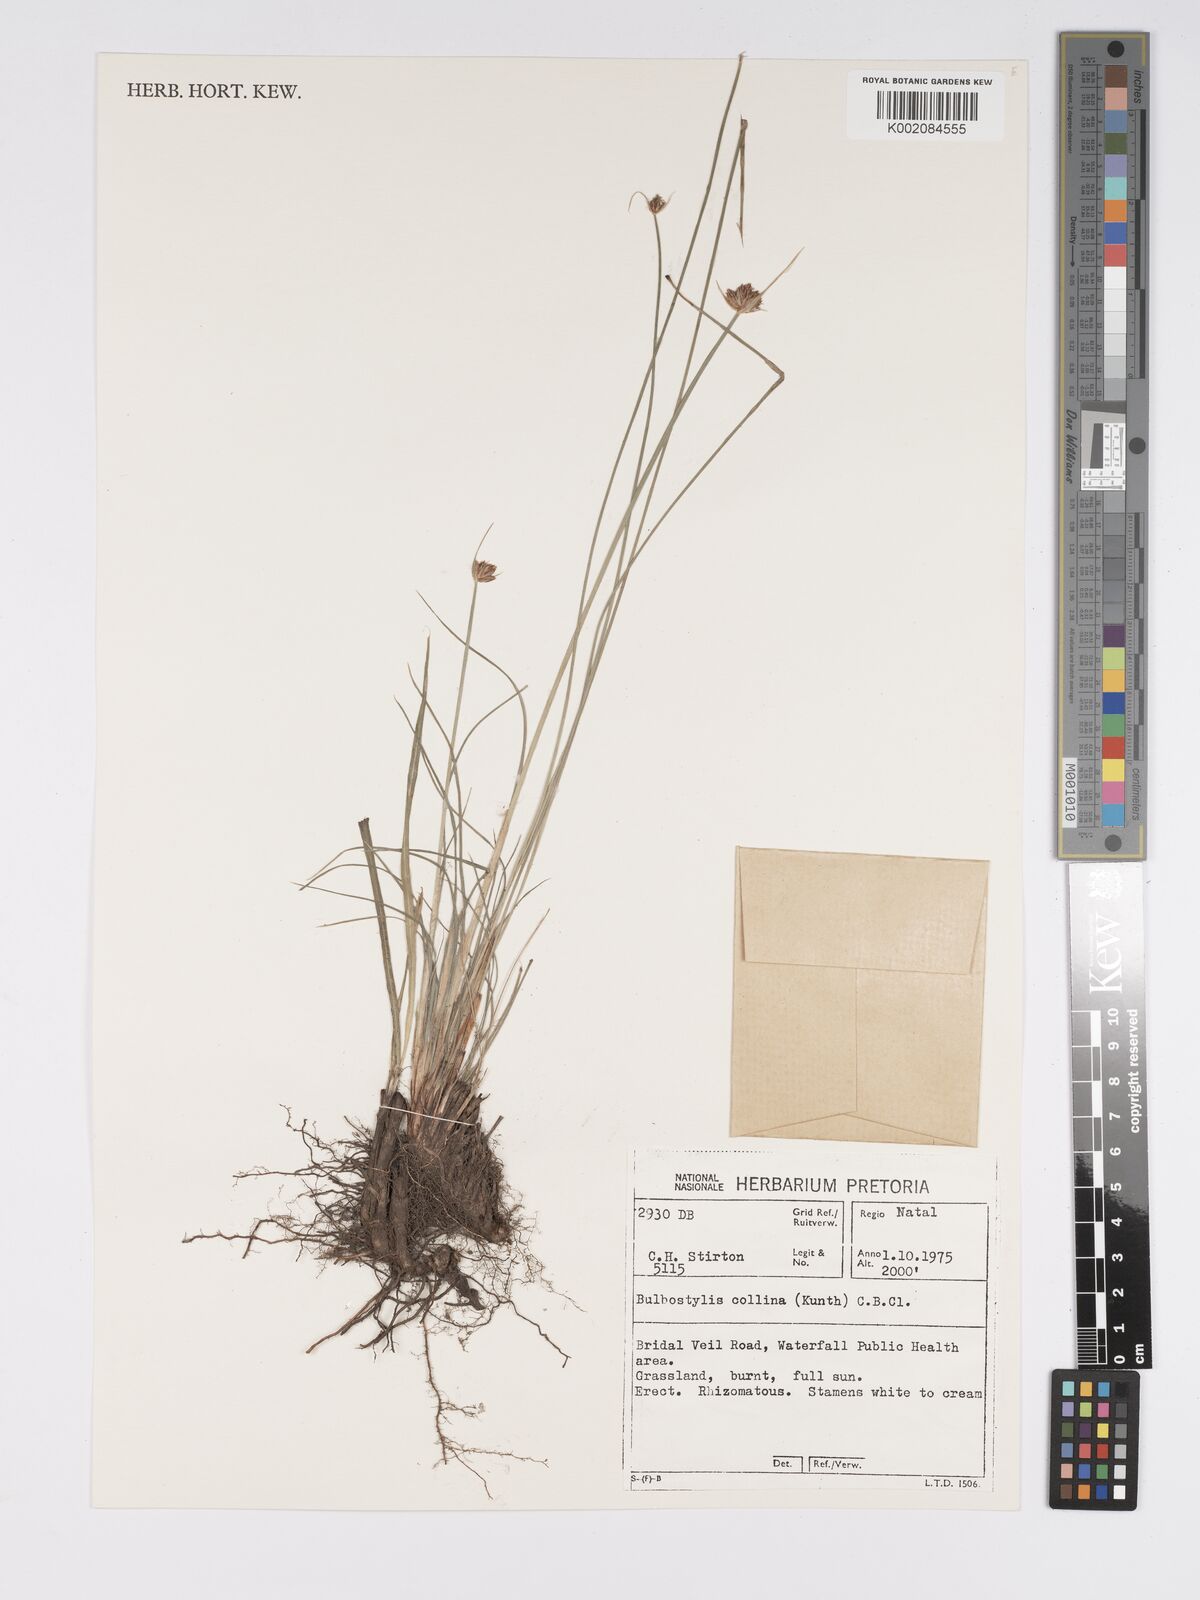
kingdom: Plantae
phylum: Tracheophyta
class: Liliopsida
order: Poales
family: Cyperaceae
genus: Bulbostylis
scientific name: Bulbostylis contexta
